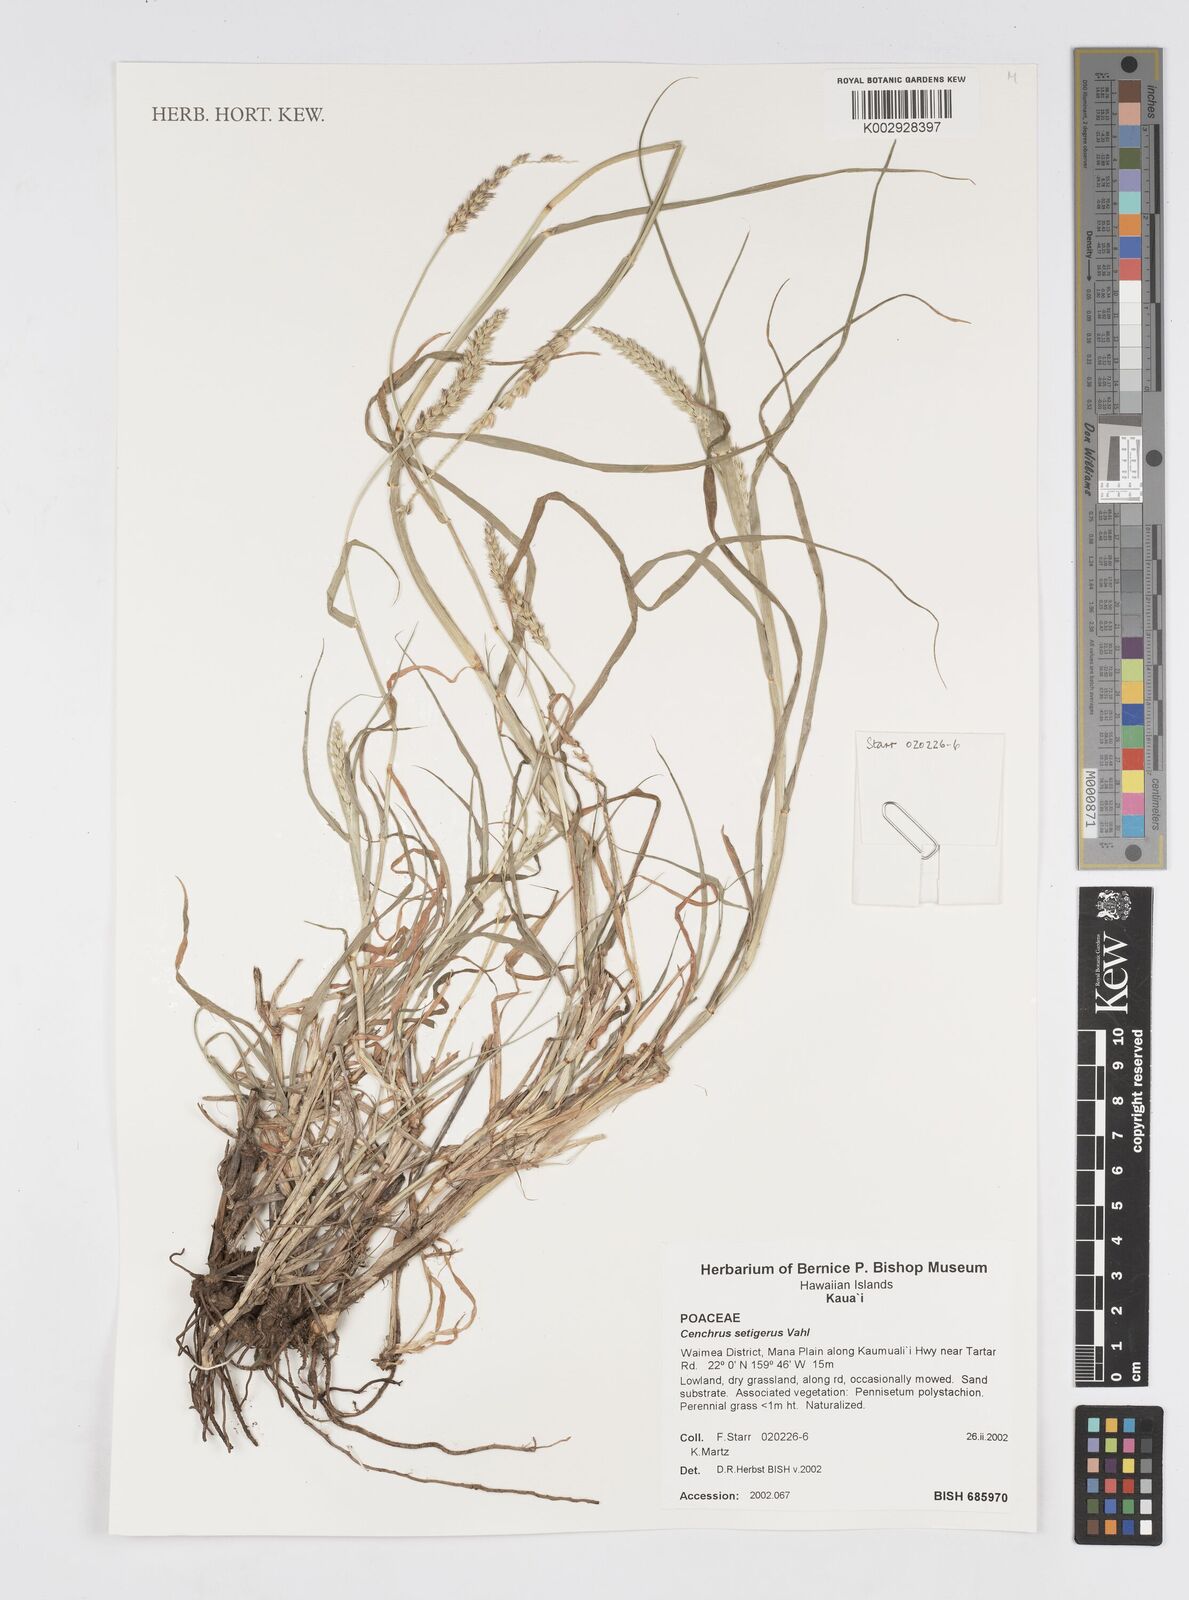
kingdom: Plantae
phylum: Tracheophyta
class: Liliopsida
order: Poales
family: Poaceae
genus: Cenchrus
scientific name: Cenchrus setigerus
